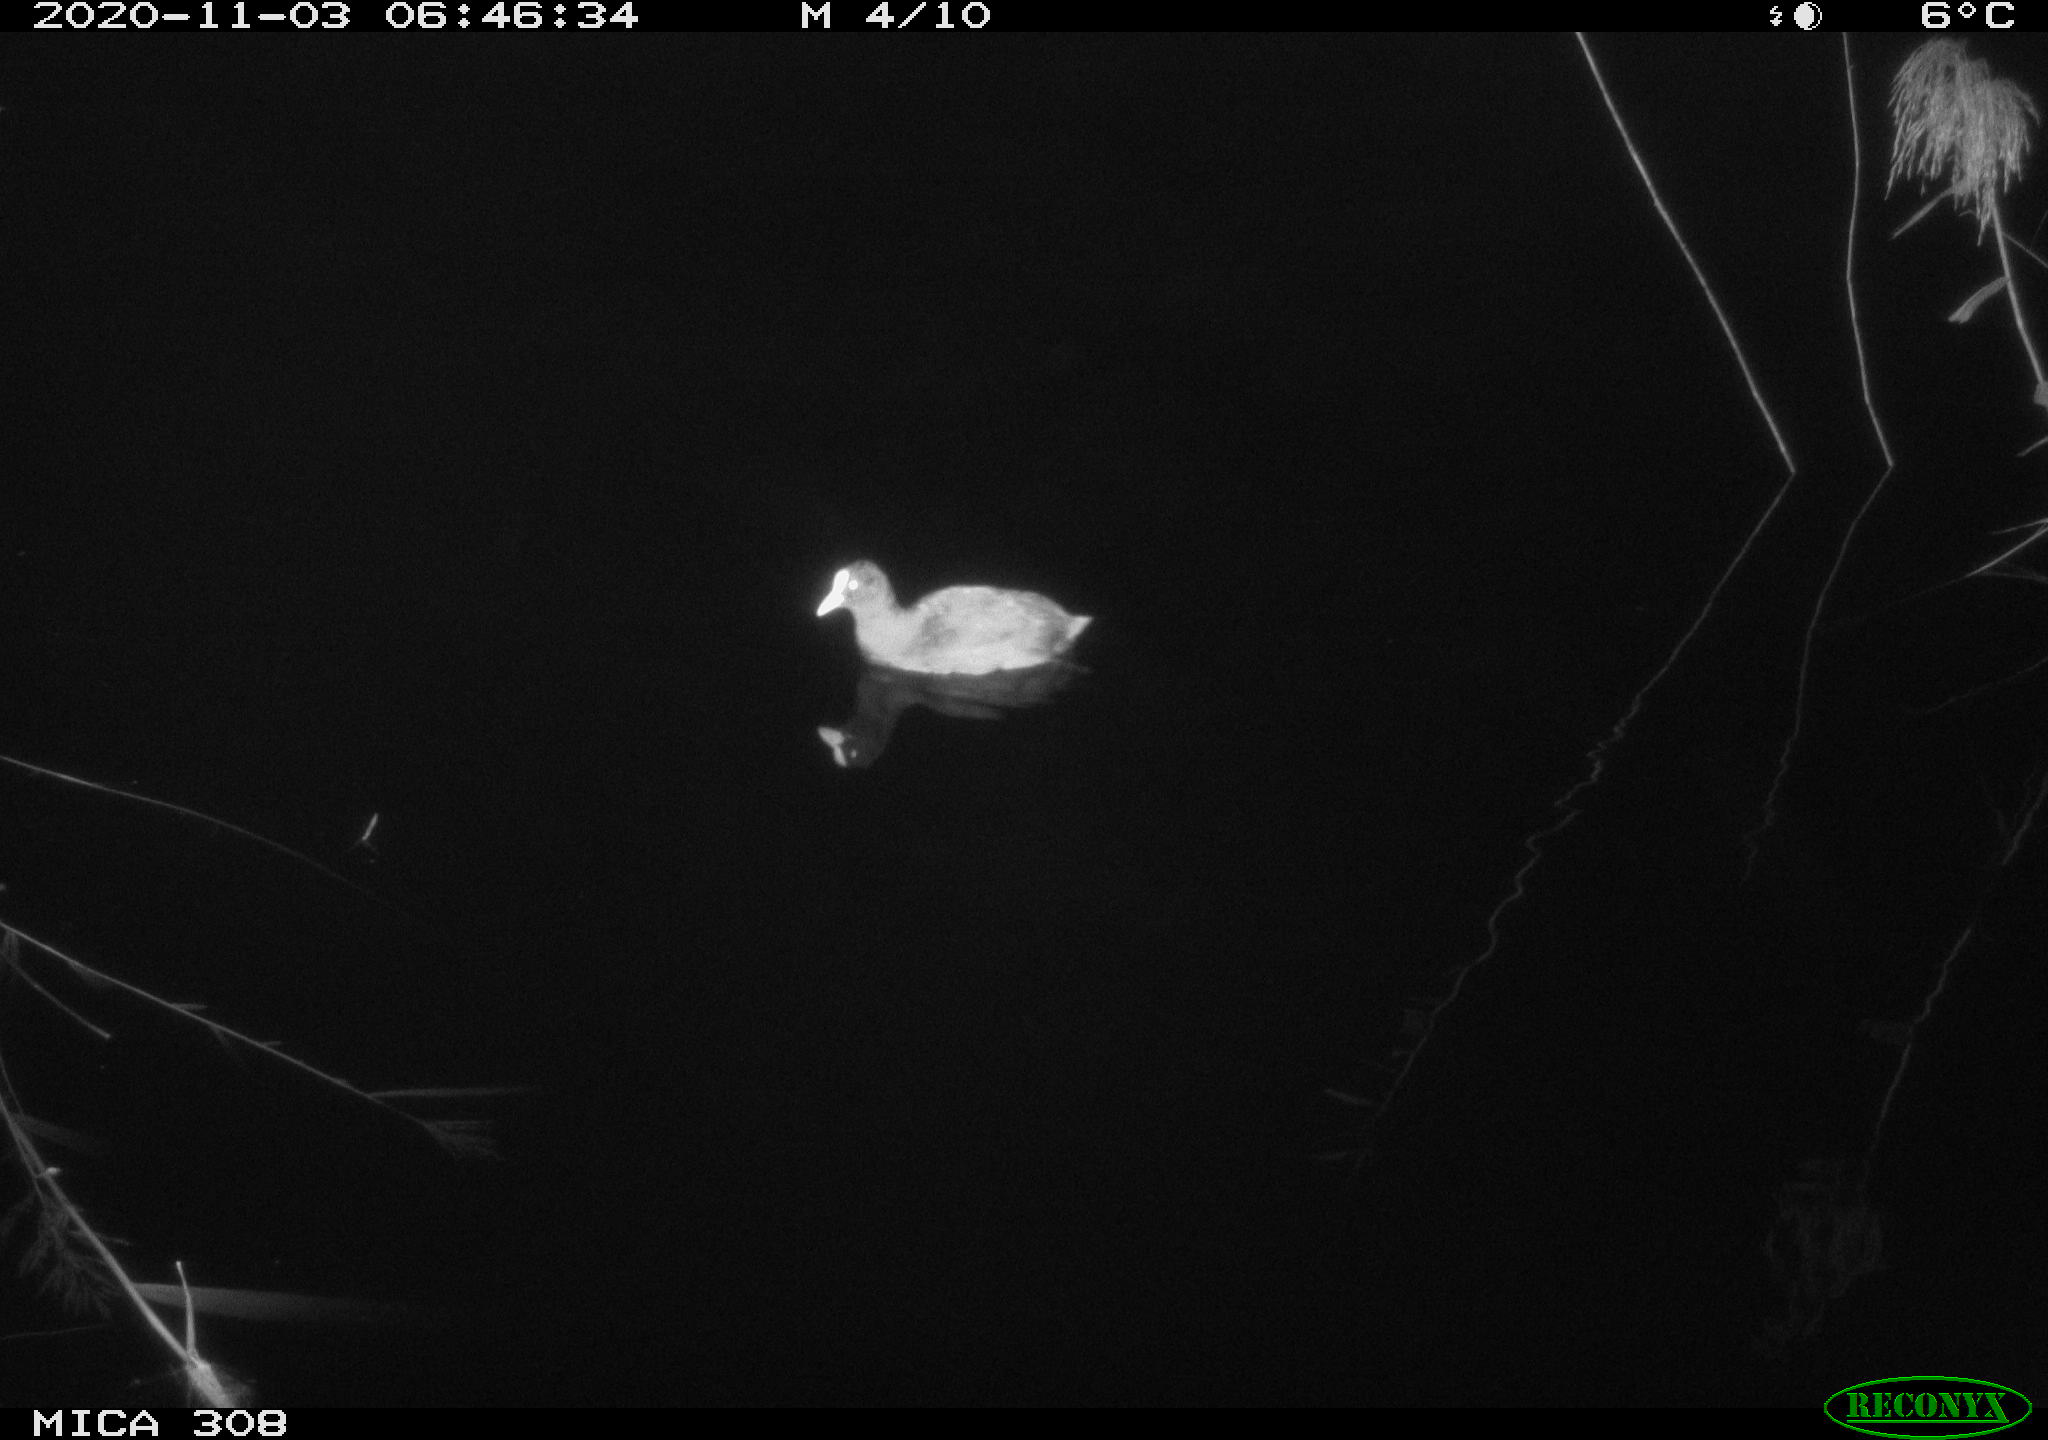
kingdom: Animalia
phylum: Chordata
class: Aves
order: Gruiformes
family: Rallidae
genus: Fulica
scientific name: Fulica atra
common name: Eurasian coot
